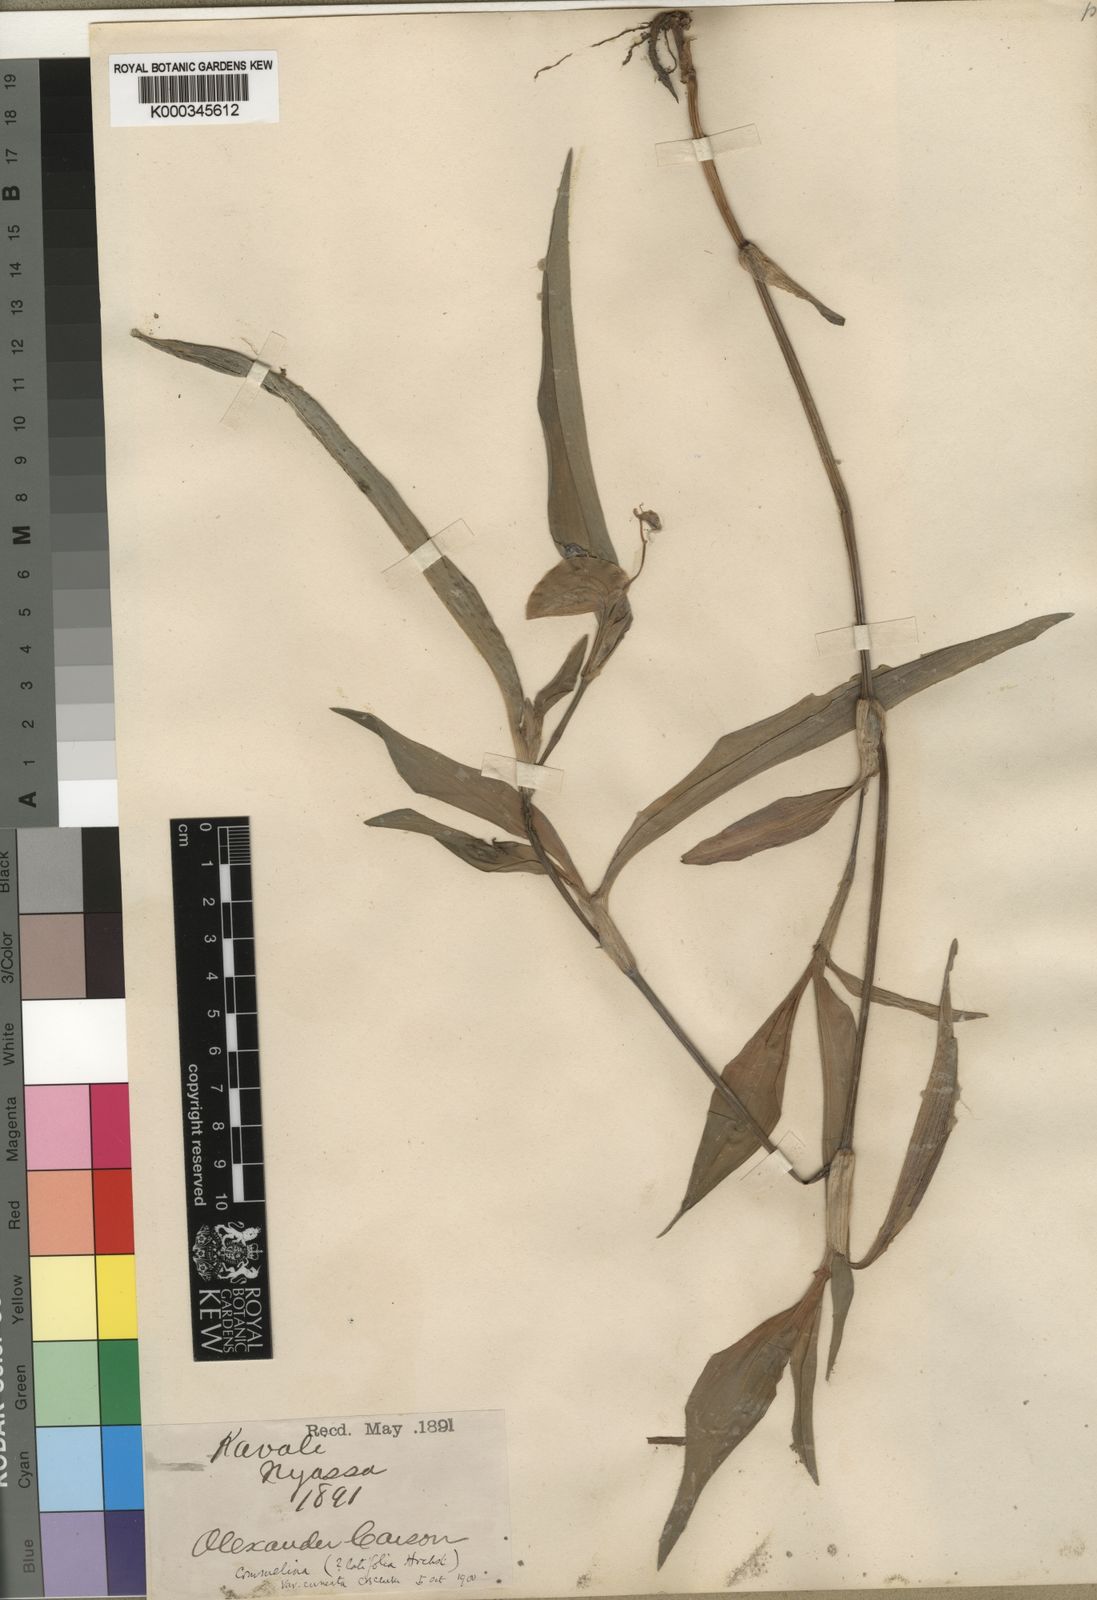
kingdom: Plantae
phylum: Tracheophyta
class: Liliopsida
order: Commelinales
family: Commelinaceae
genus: Commelina
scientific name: Commelina zambesica
